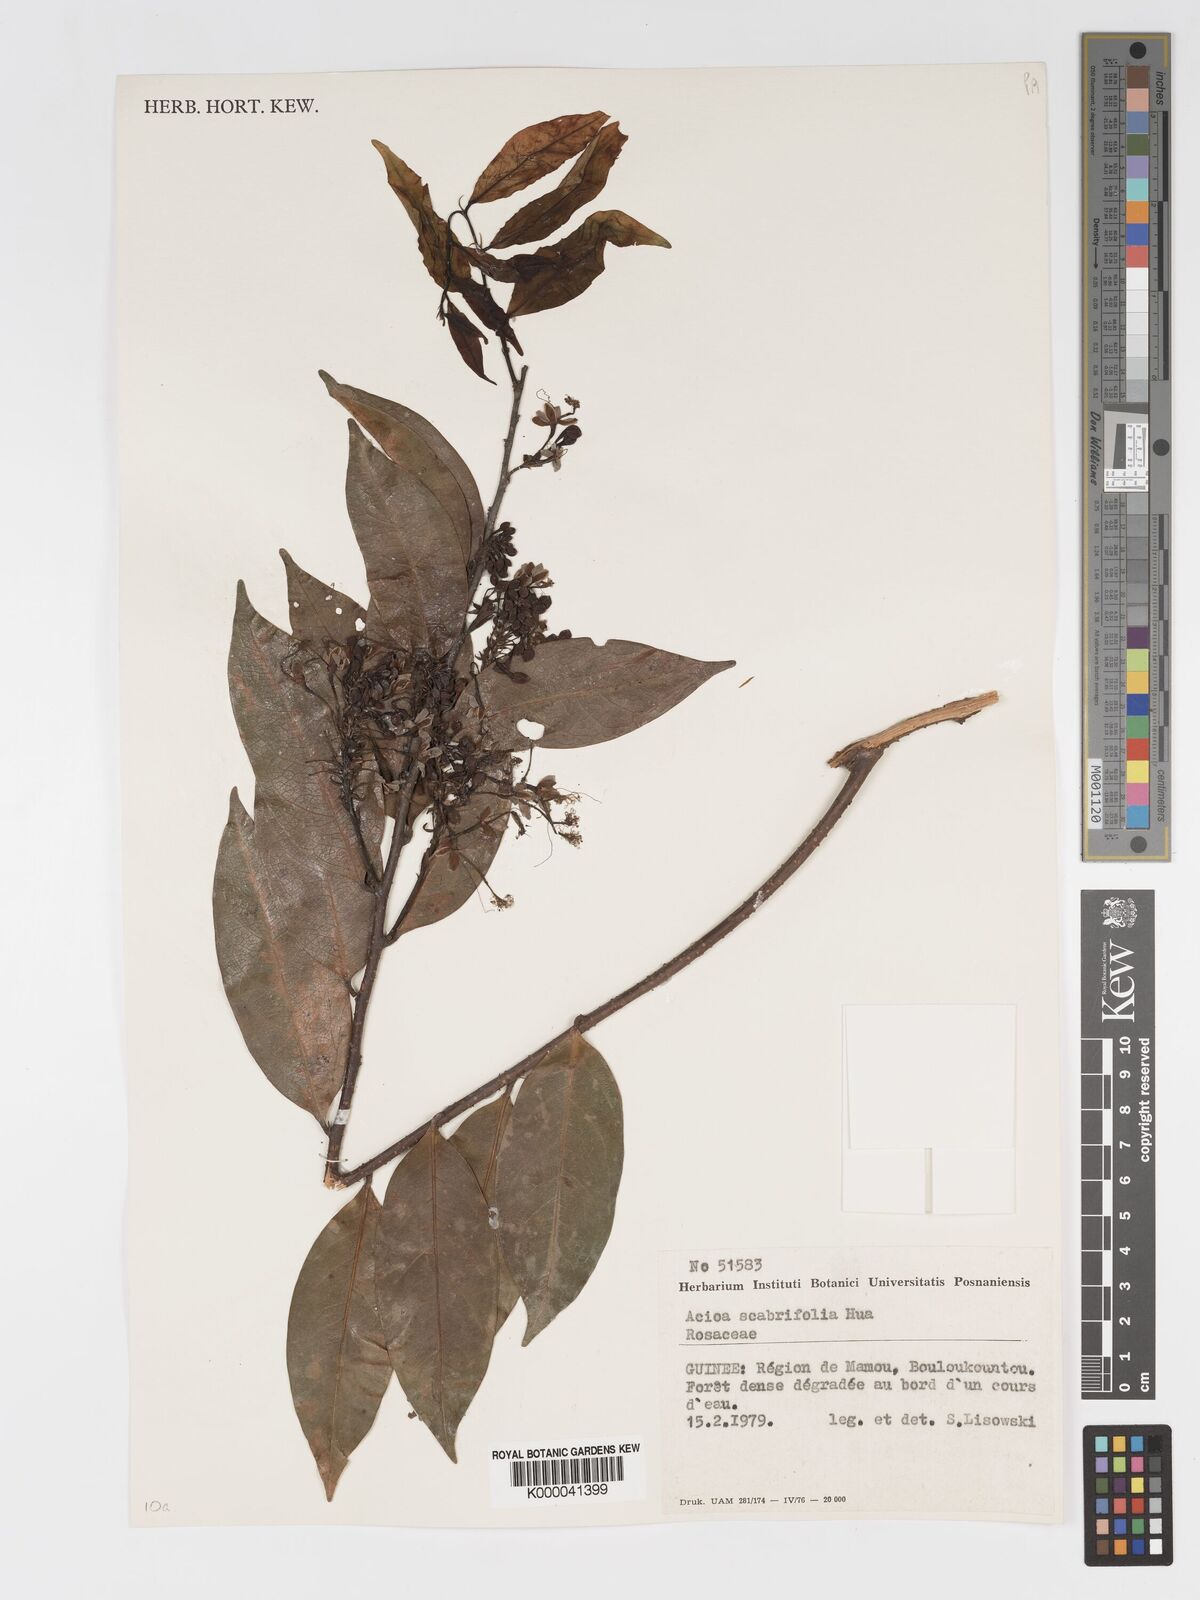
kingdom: Plantae
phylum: Tracheophyta
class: Magnoliopsida
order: Malpighiales
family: Chrysobalanaceae
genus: Dactyladenia
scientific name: Dactyladenia scabrifolia
